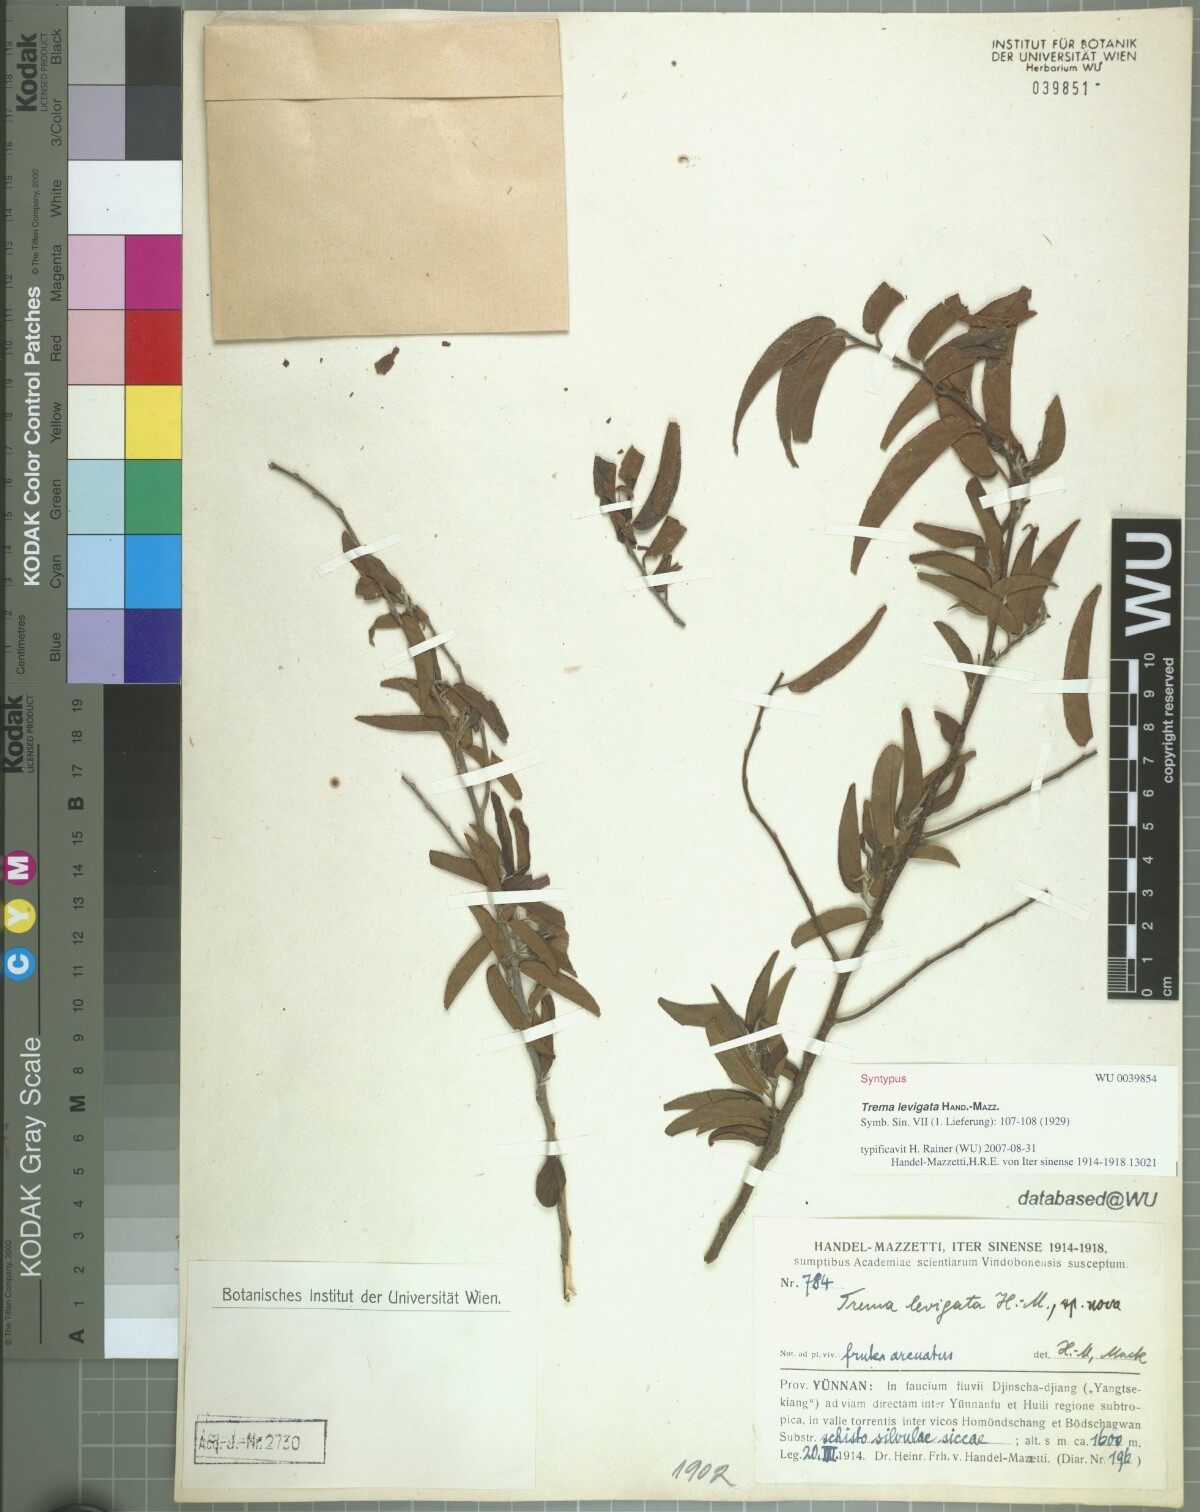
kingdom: Plantae
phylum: Tracheophyta
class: Magnoliopsida
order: Rosales
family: Cannabaceae
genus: Trema
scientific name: Trema levigatum
